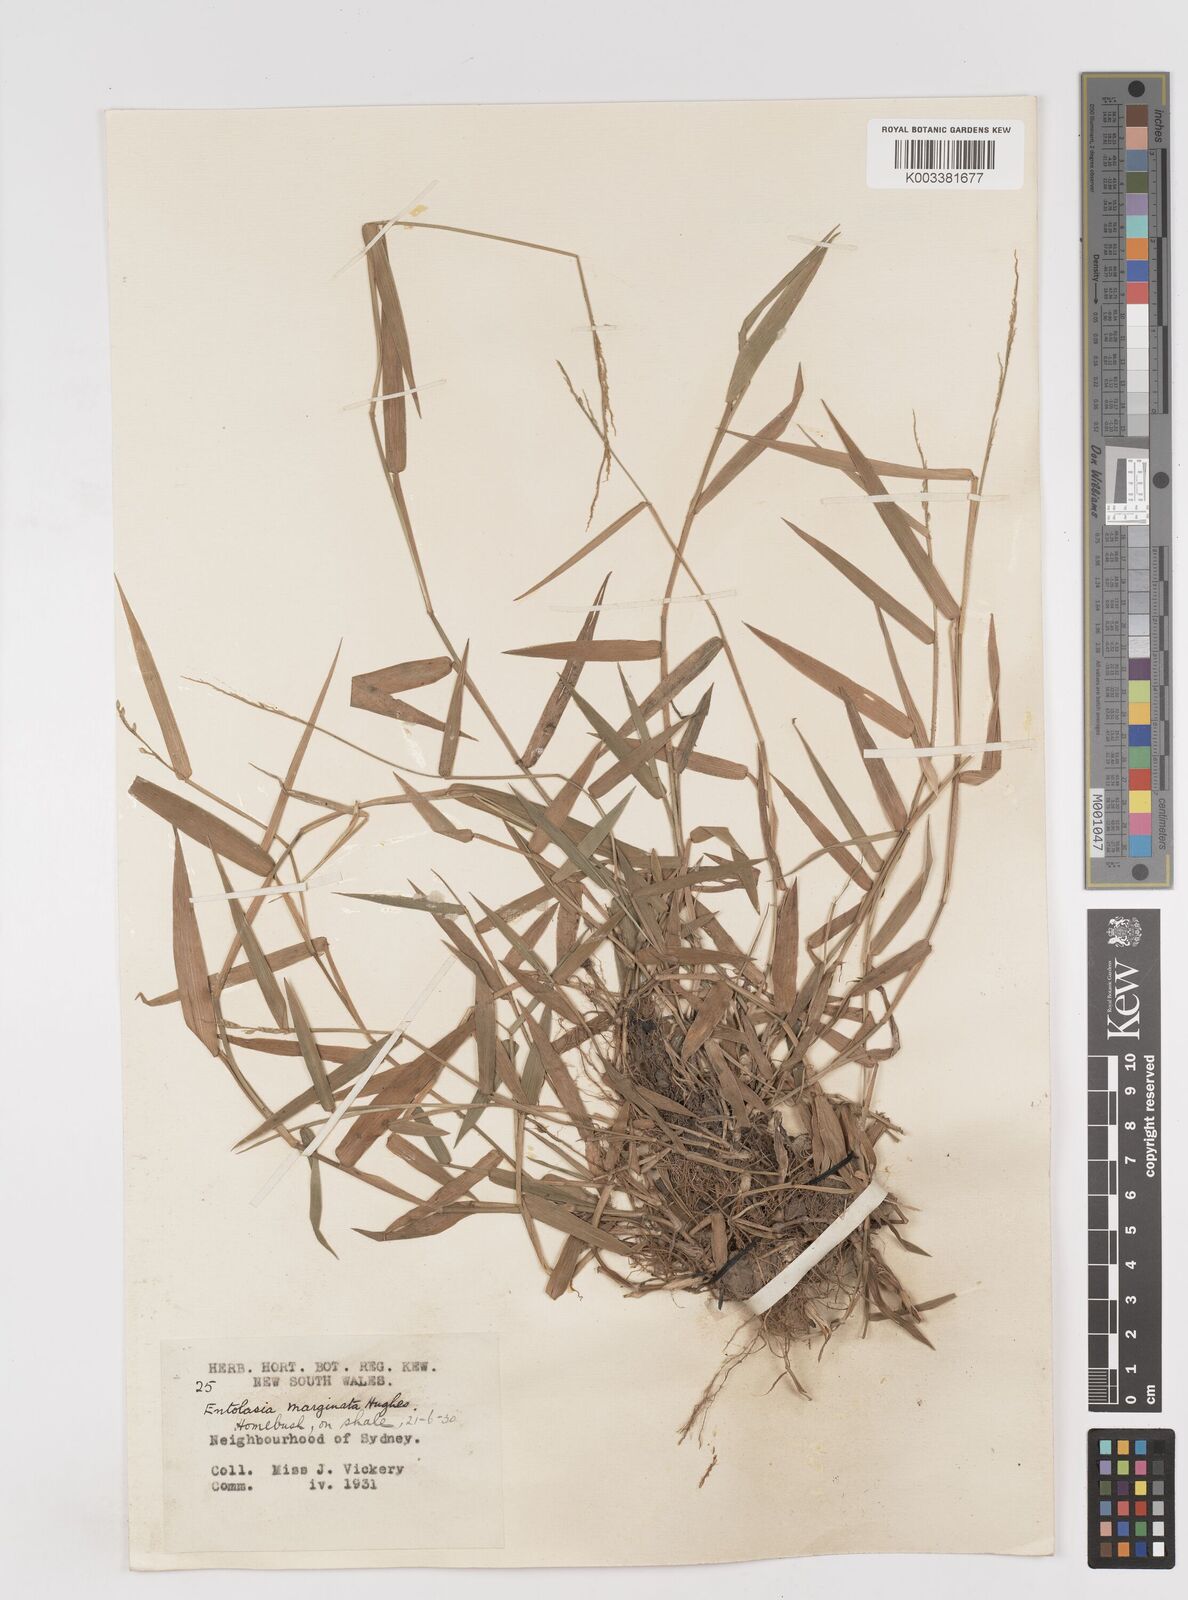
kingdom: Plantae
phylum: Tracheophyta
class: Liliopsida
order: Poales
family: Poaceae
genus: Entolasia
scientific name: Entolasia marginata
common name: Australian panicgrass
